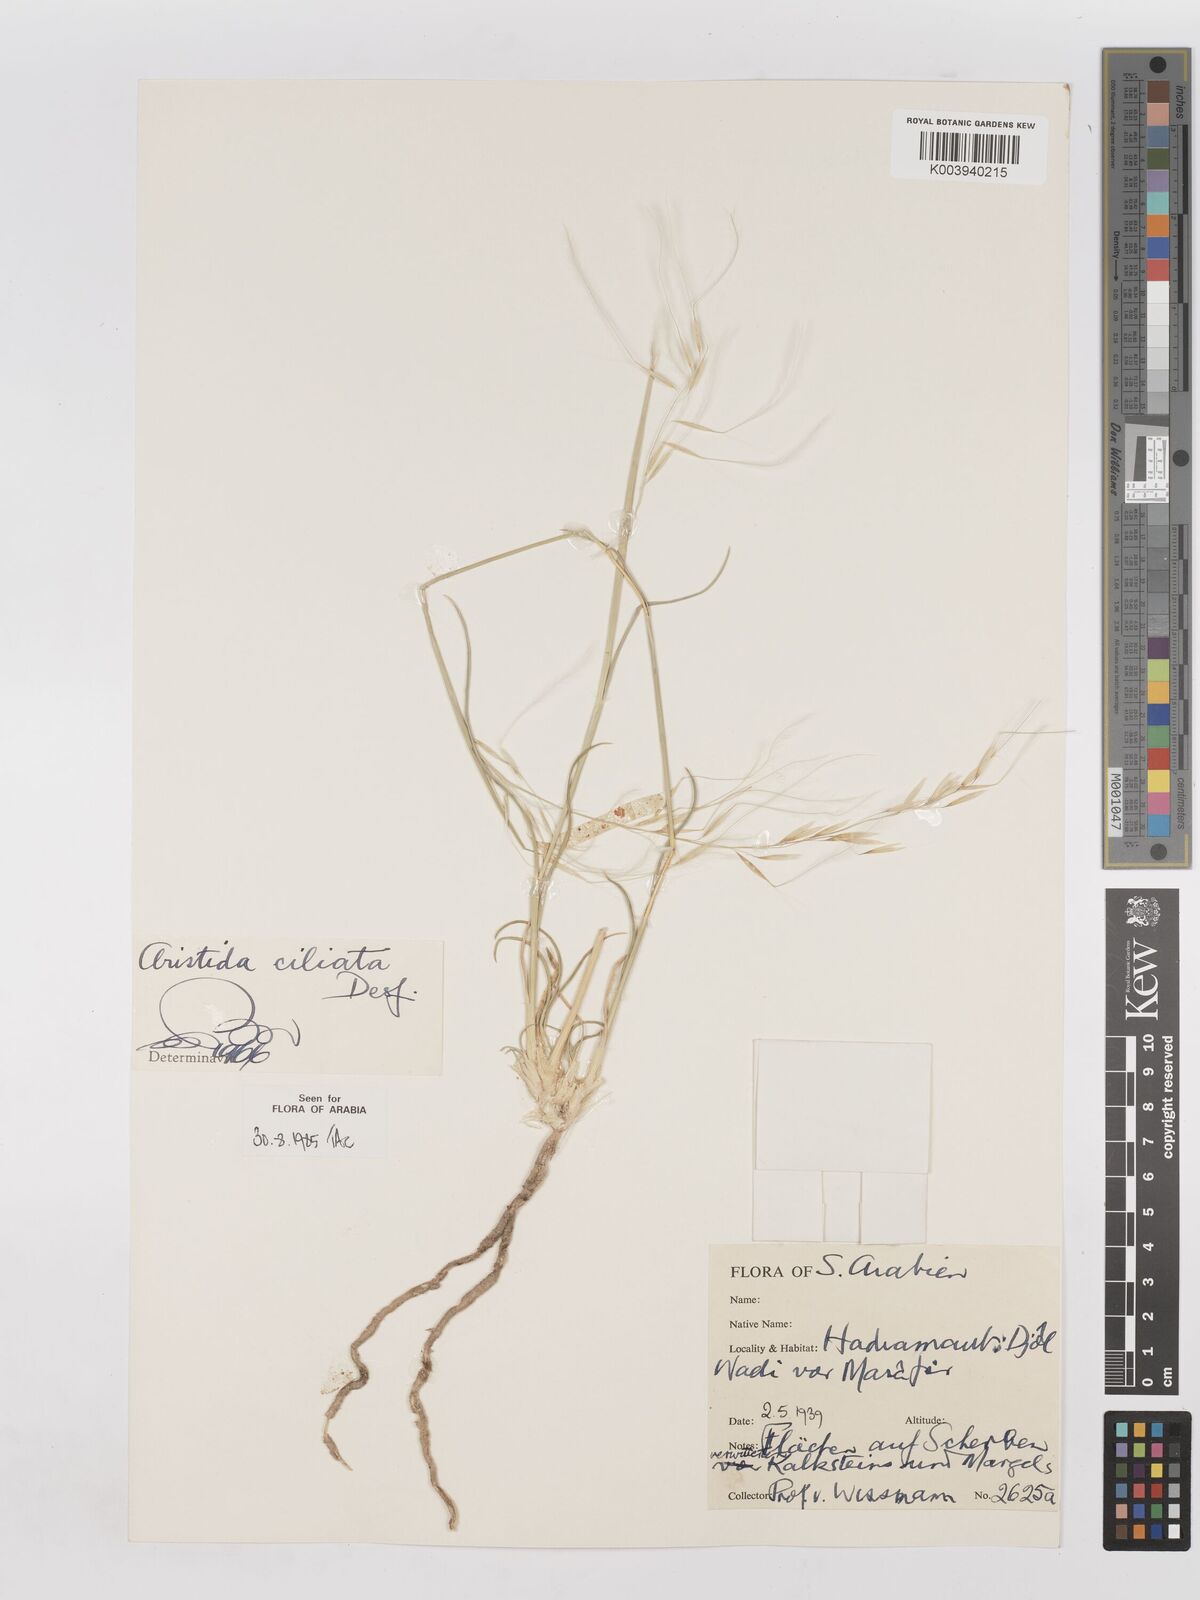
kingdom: Plantae
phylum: Tracheophyta
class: Liliopsida
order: Poales
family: Poaceae
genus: Stipagrostis
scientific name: Stipagrostis ciliata
